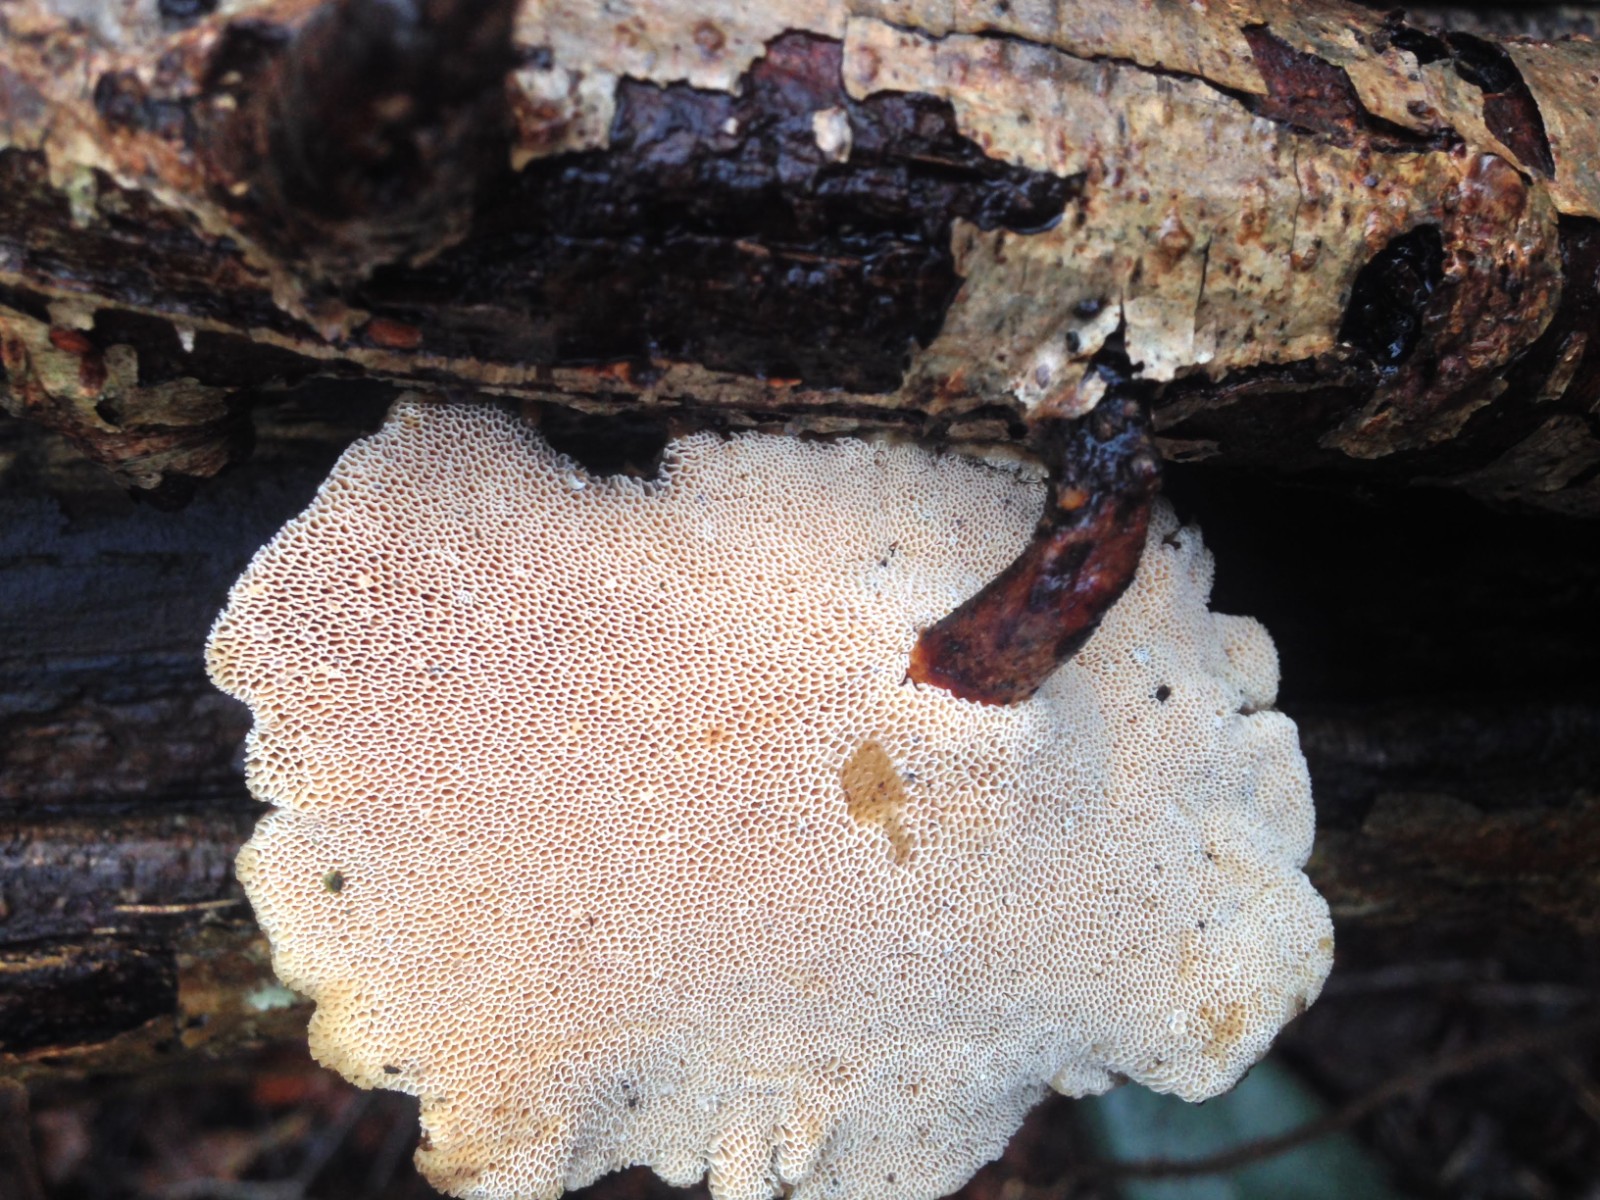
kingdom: Fungi
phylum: Basidiomycota
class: Agaricomycetes
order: Polyporales
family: Polyporaceae
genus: Lentinus
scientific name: Lentinus brumalis
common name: vinter-stilkporesvamp
